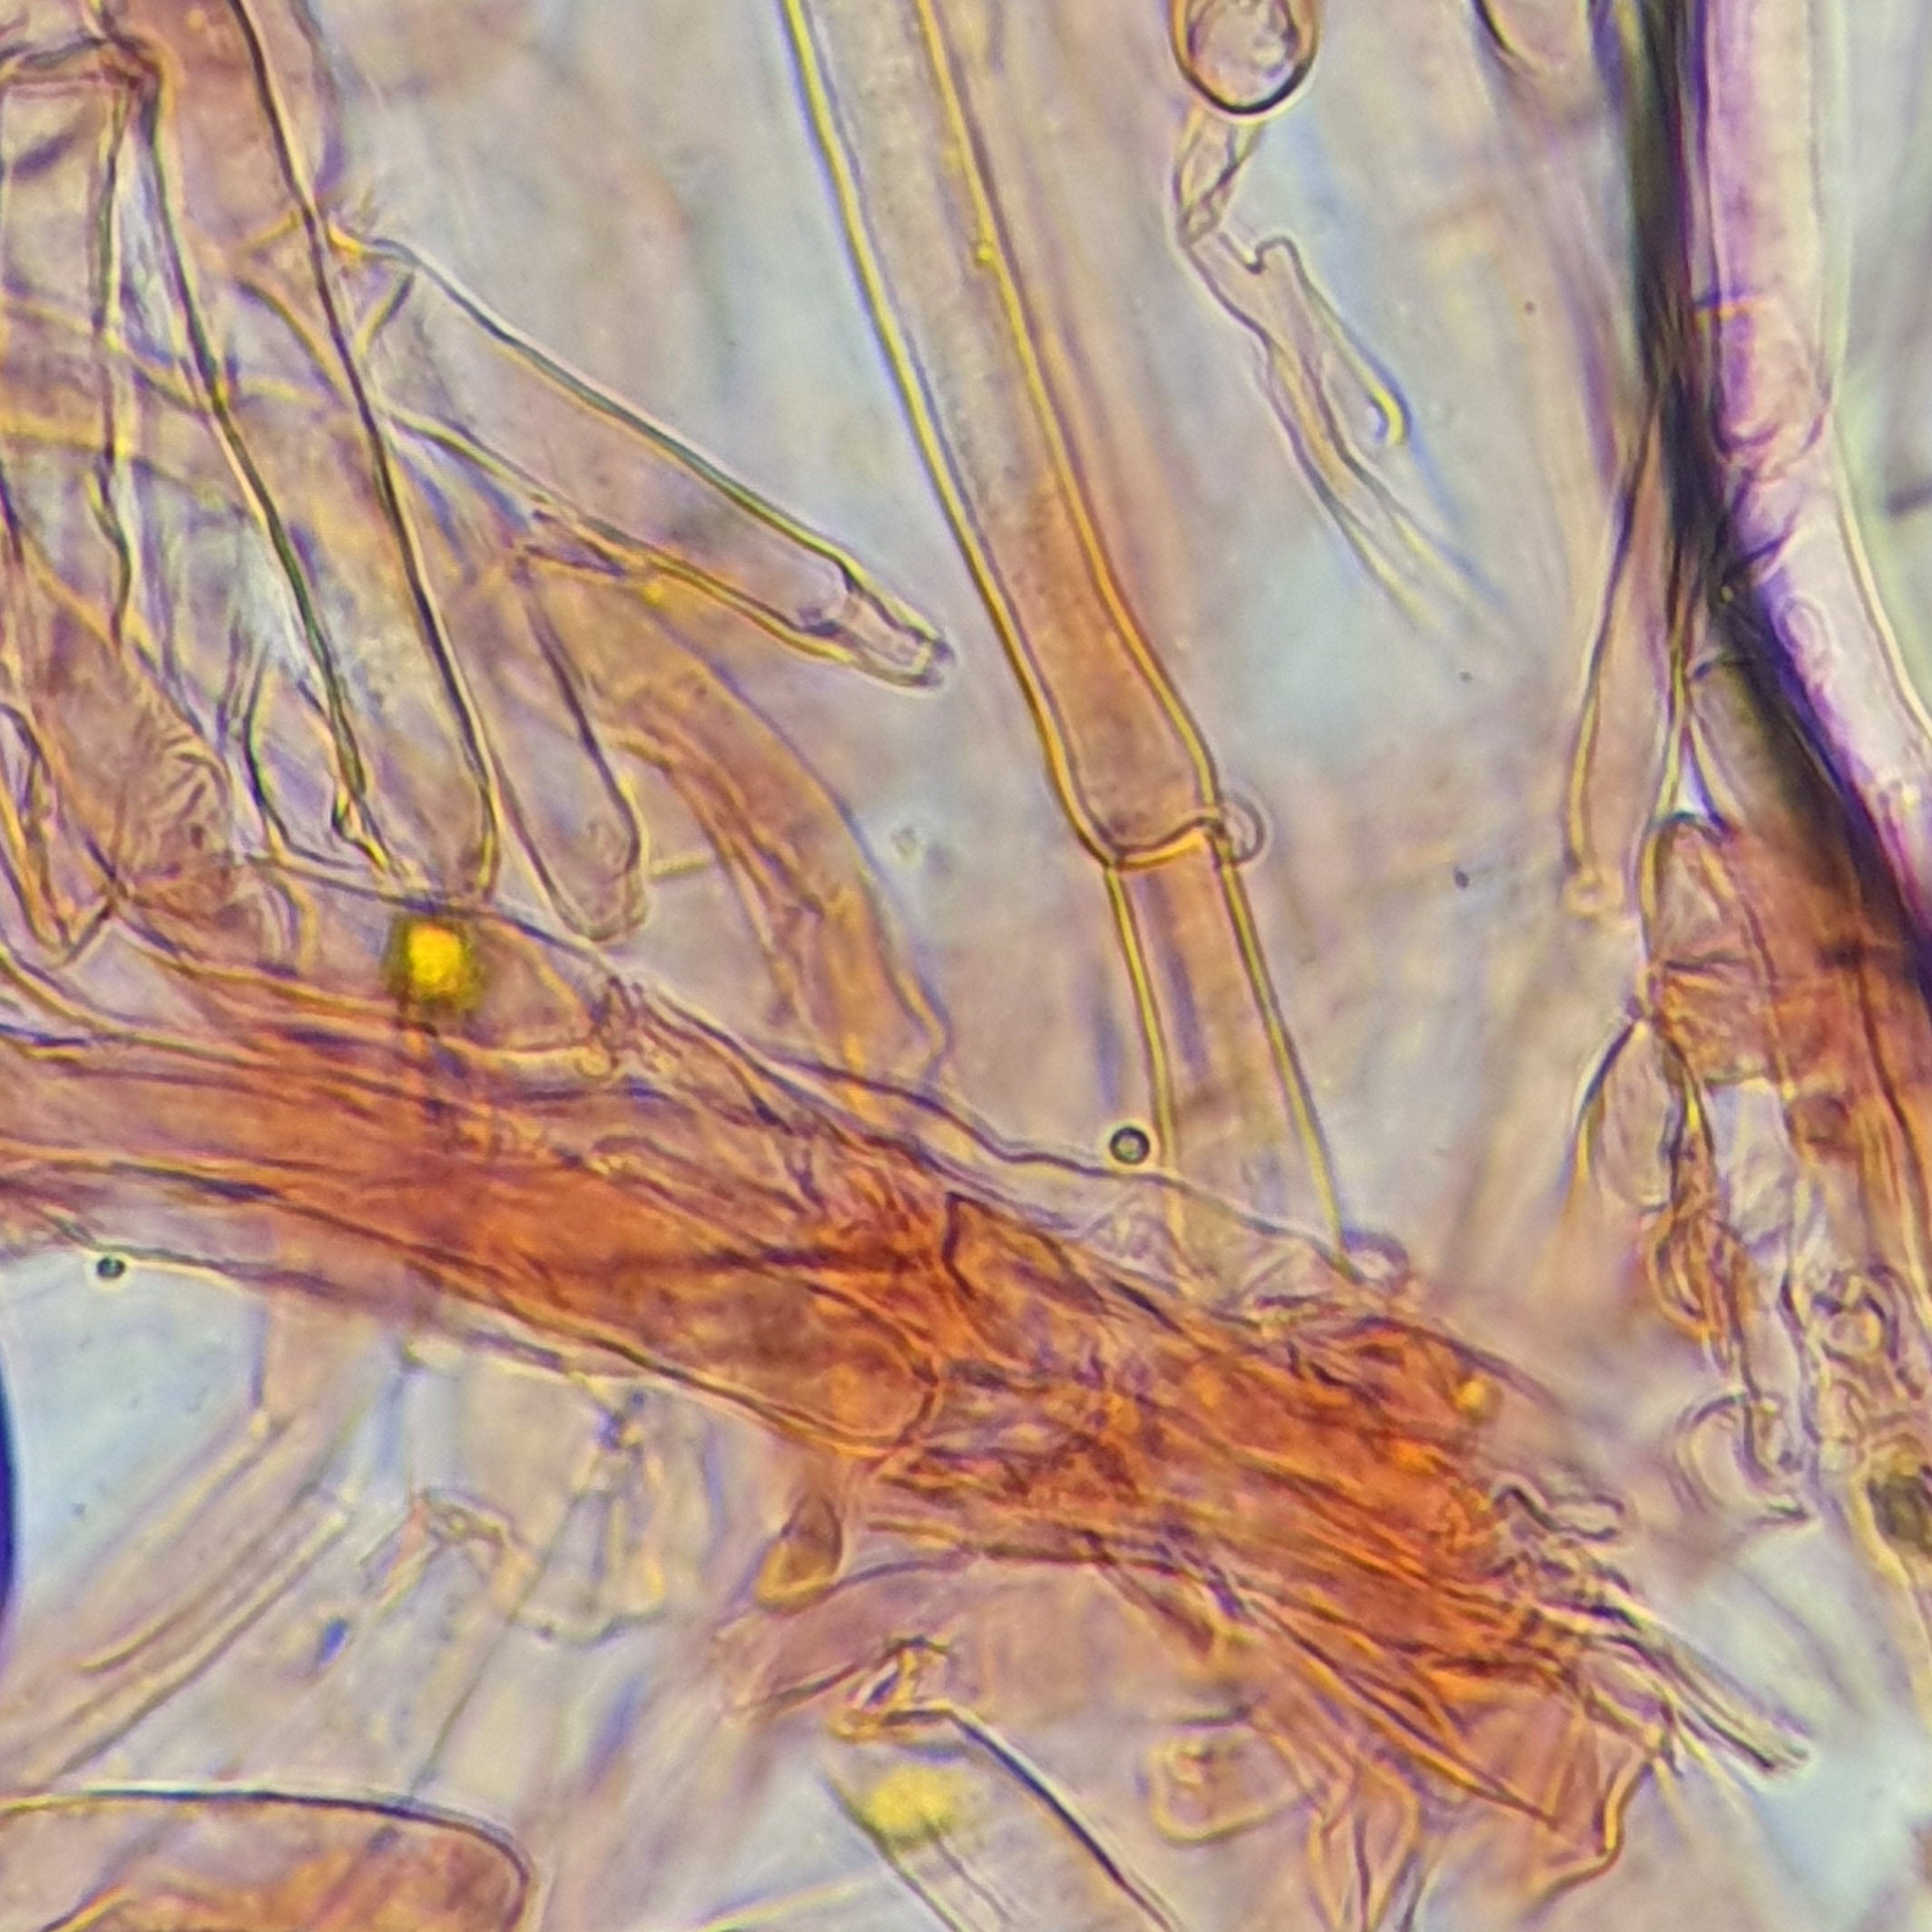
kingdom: Fungi
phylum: Basidiomycota
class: Agaricomycetes
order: Agaricales
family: Clavariaceae
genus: Clavulinopsis
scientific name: Clavulinopsis laeticolor
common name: flamme-køllesvamp
